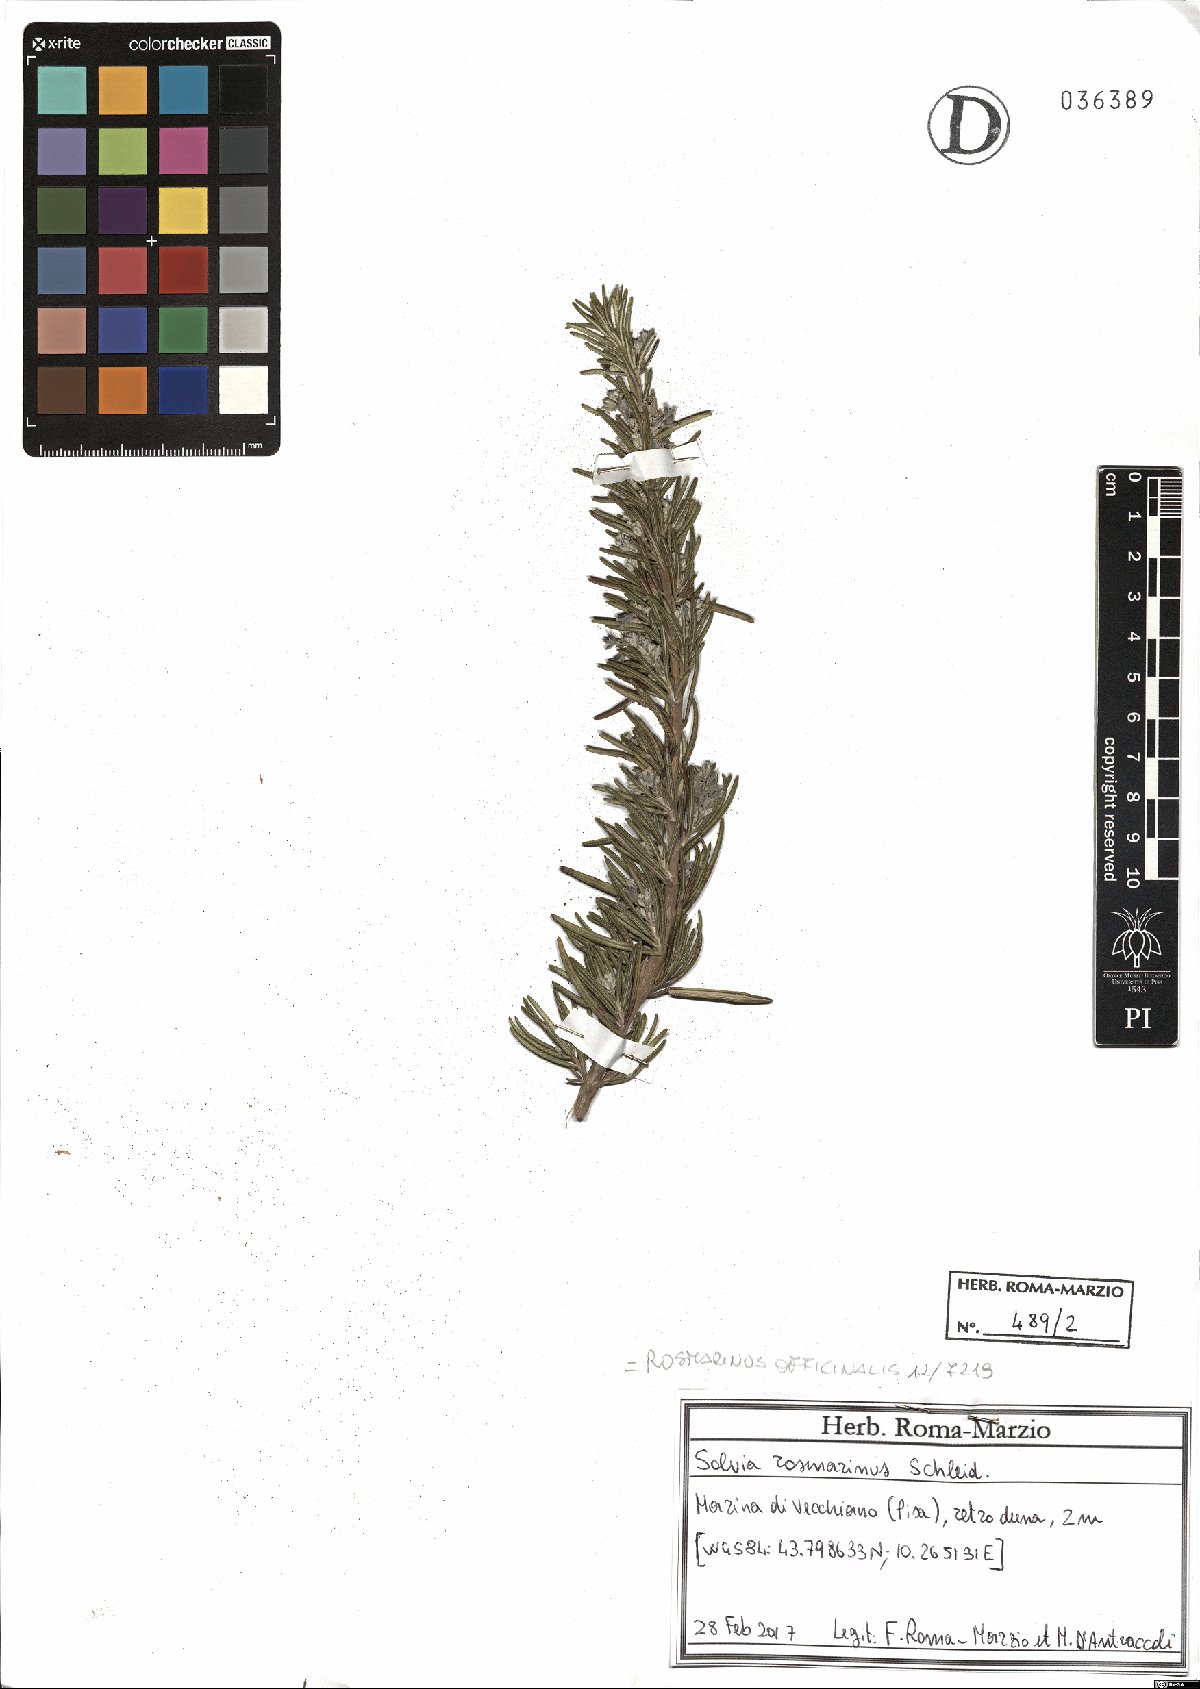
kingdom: Plantae
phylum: Tracheophyta
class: Magnoliopsida
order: Lamiales
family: Lamiaceae
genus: Salvia
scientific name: Salvia rosmarinus
